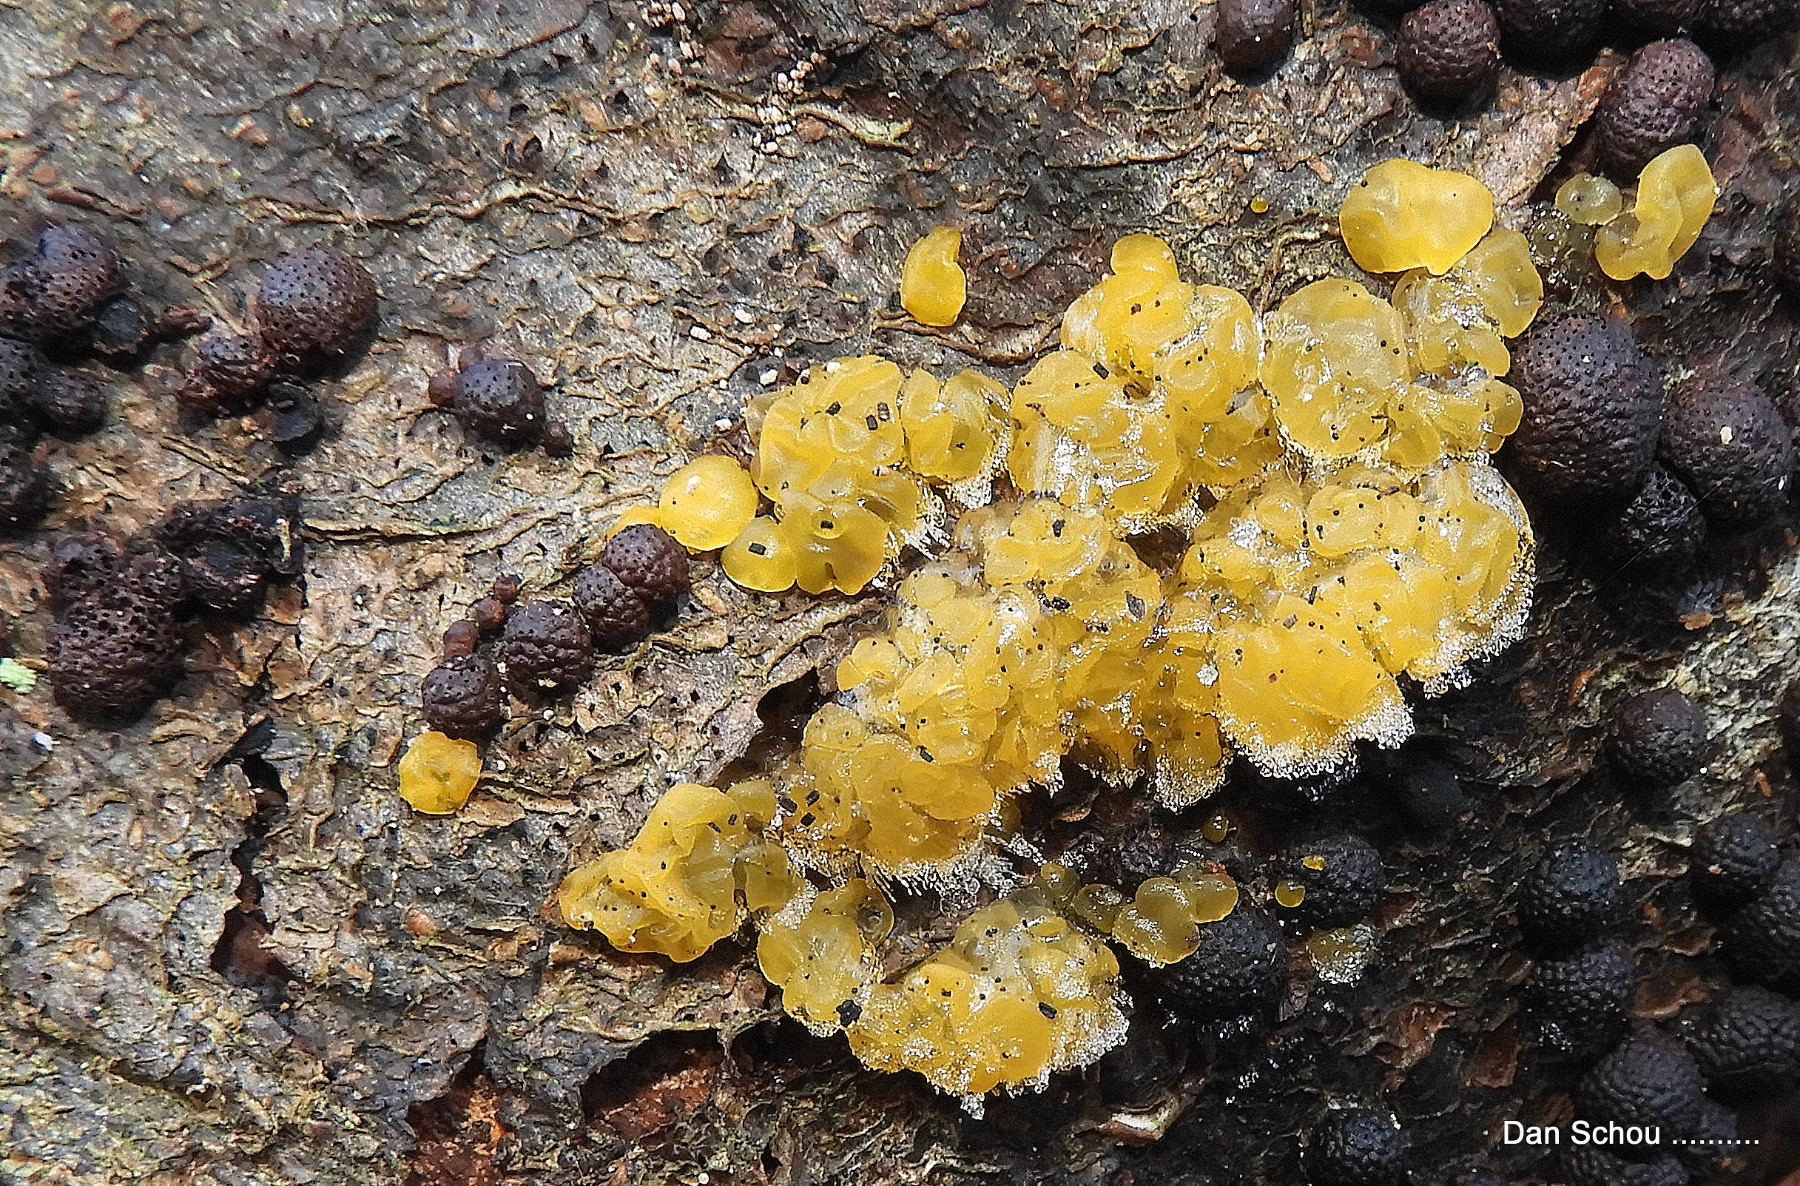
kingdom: Fungi
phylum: Basidiomycota
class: Dacrymycetes
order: Dacrymycetales
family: Dacrymycetaceae
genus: Dacrymyces
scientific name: Dacrymyces lacrymalis
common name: rynket tåresvamp
